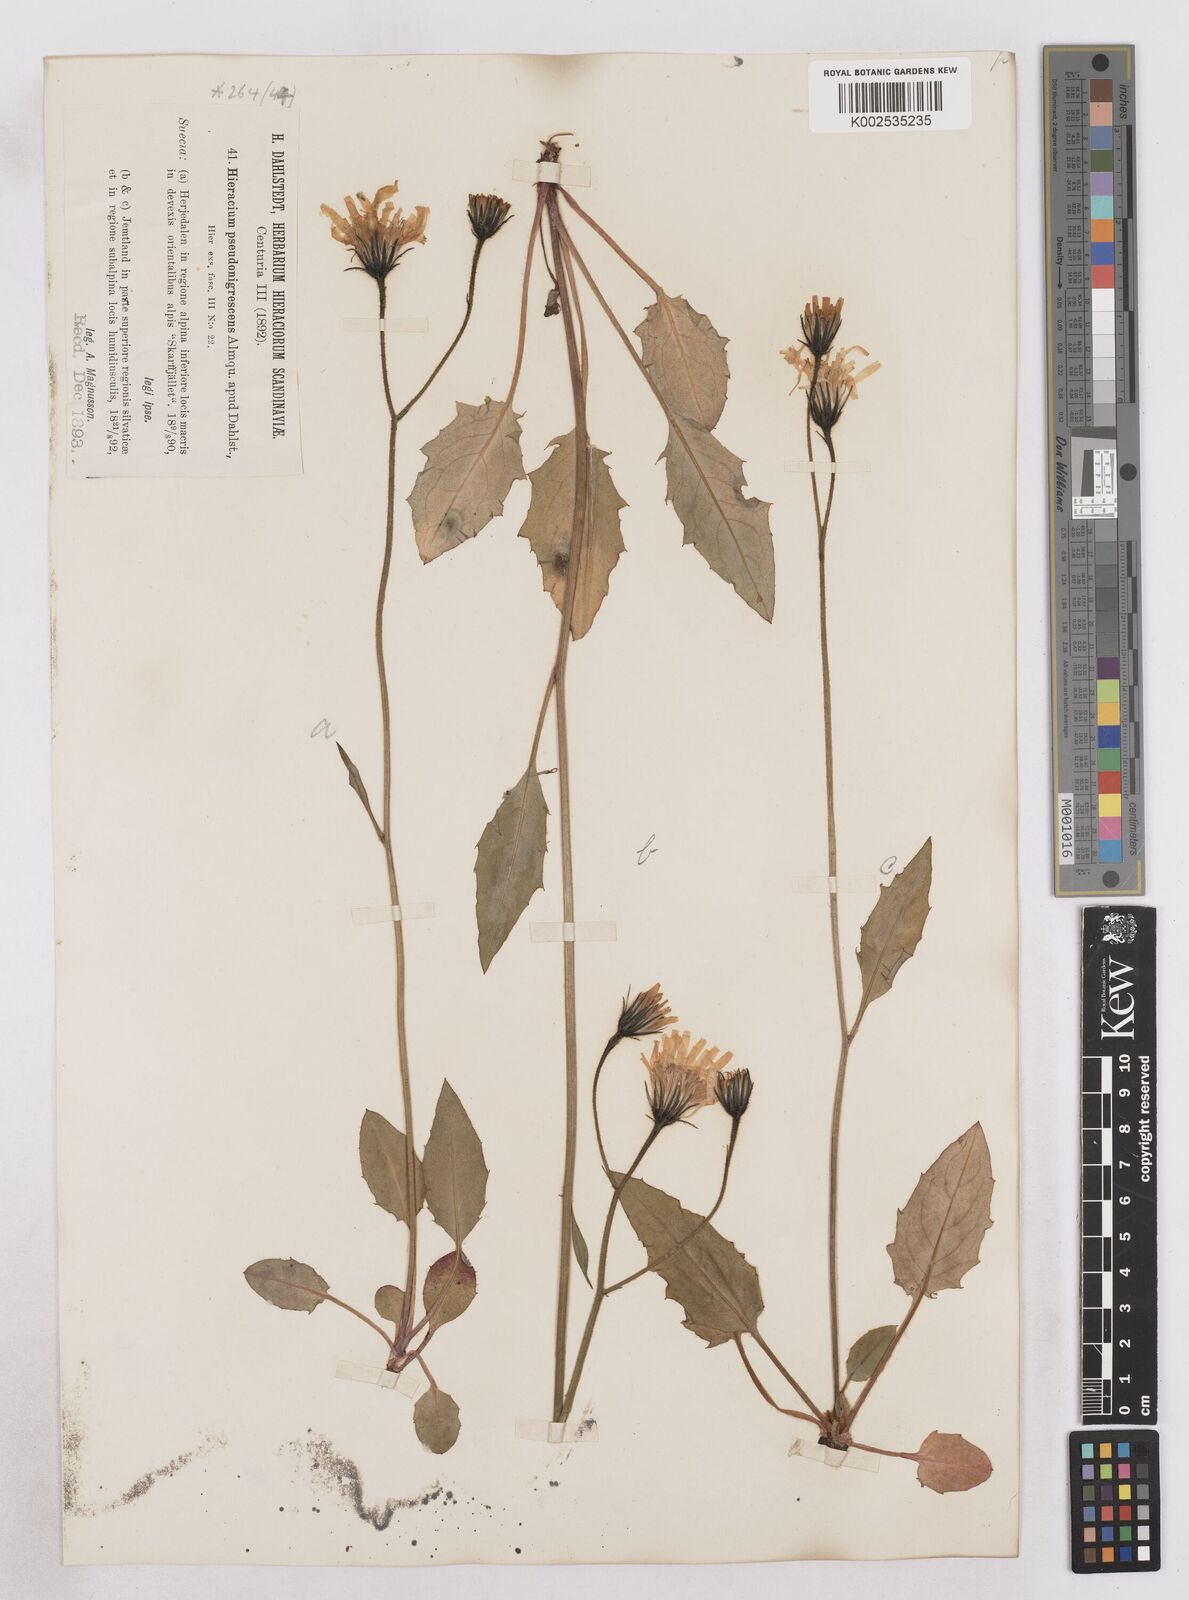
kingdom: Plantae
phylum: Tracheophyta
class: Magnoliopsida
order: Asterales
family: Asteraceae
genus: Hieracium
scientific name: Hieracium pseudonigrescens
